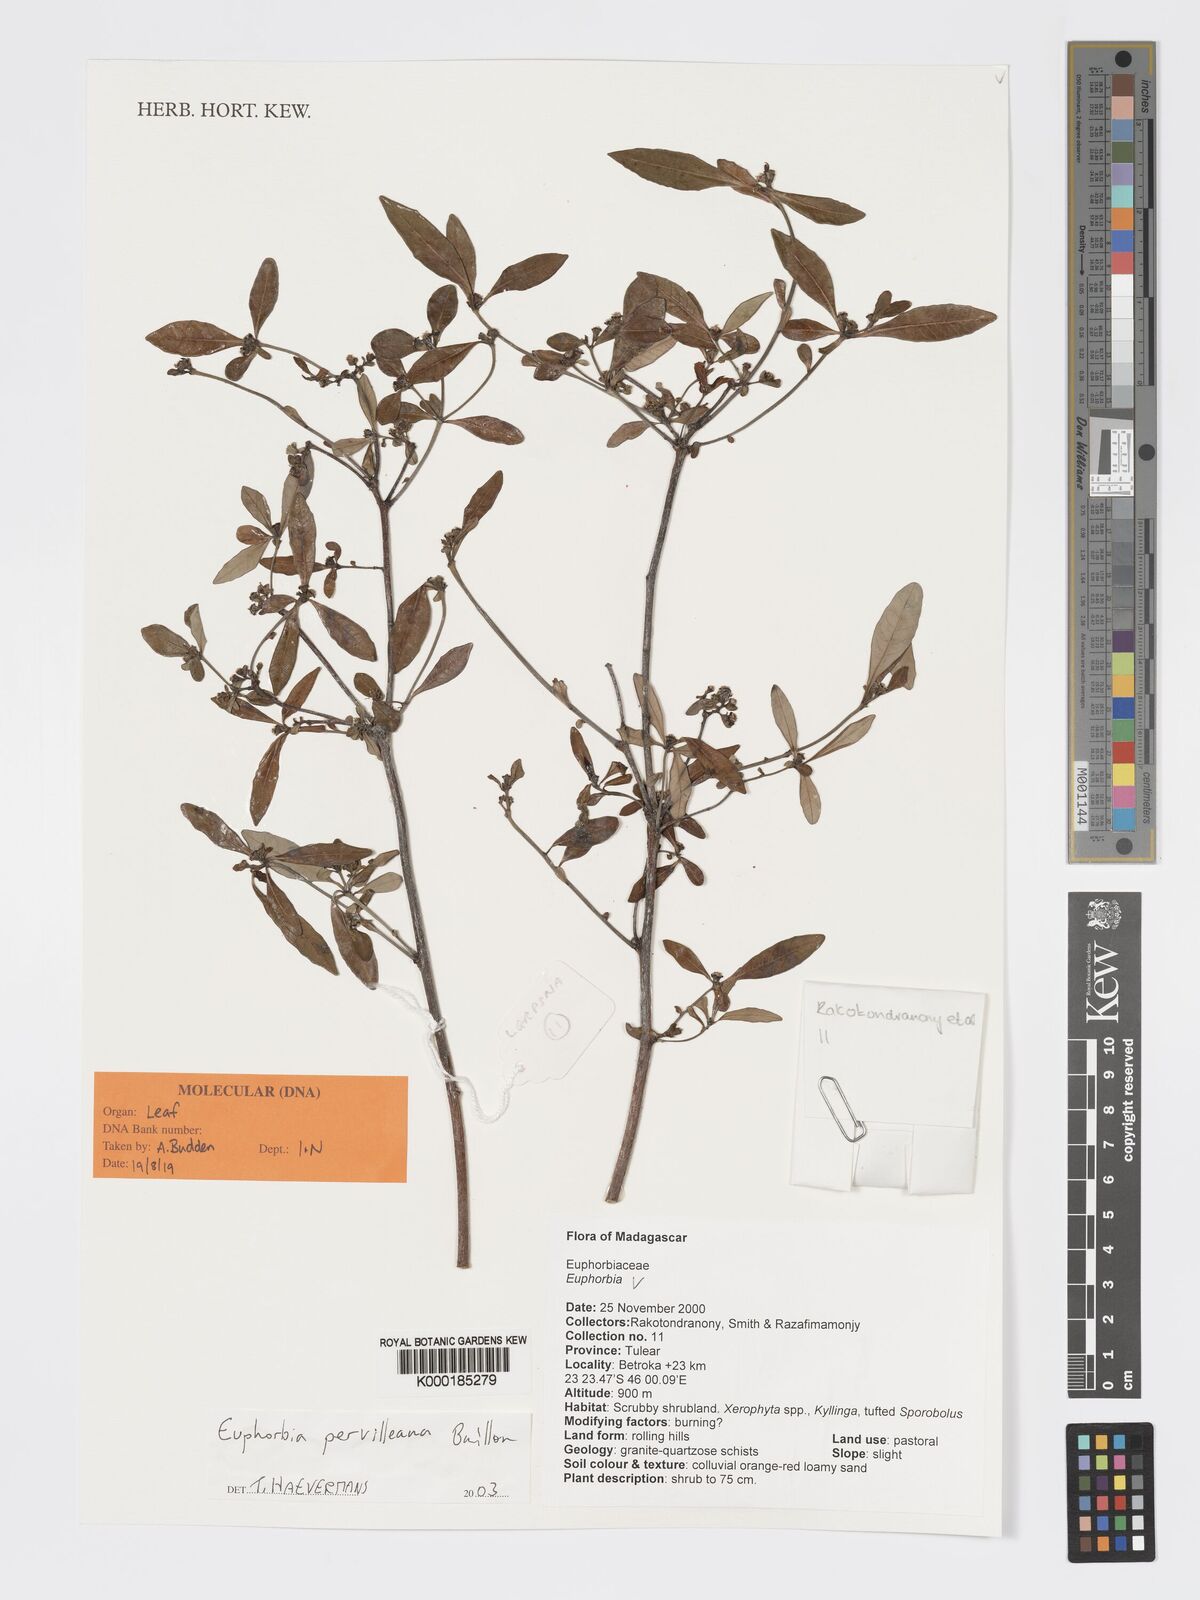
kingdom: Plantae
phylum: Tracheophyta
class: Magnoliopsida
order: Malpighiales
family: Euphorbiaceae
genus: Euphorbia
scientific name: Euphorbia pervilleana
